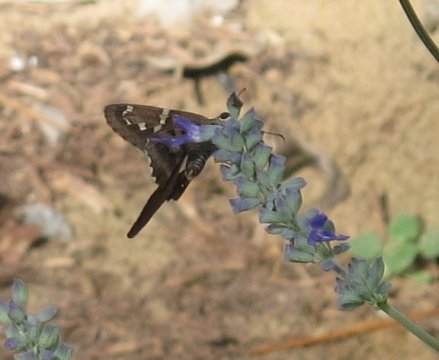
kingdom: Animalia
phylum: Arthropoda
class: Insecta
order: Lepidoptera
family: Hesperiidae
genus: Urbanus
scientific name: Urbanus proteus
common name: Long-tailed Skipper
